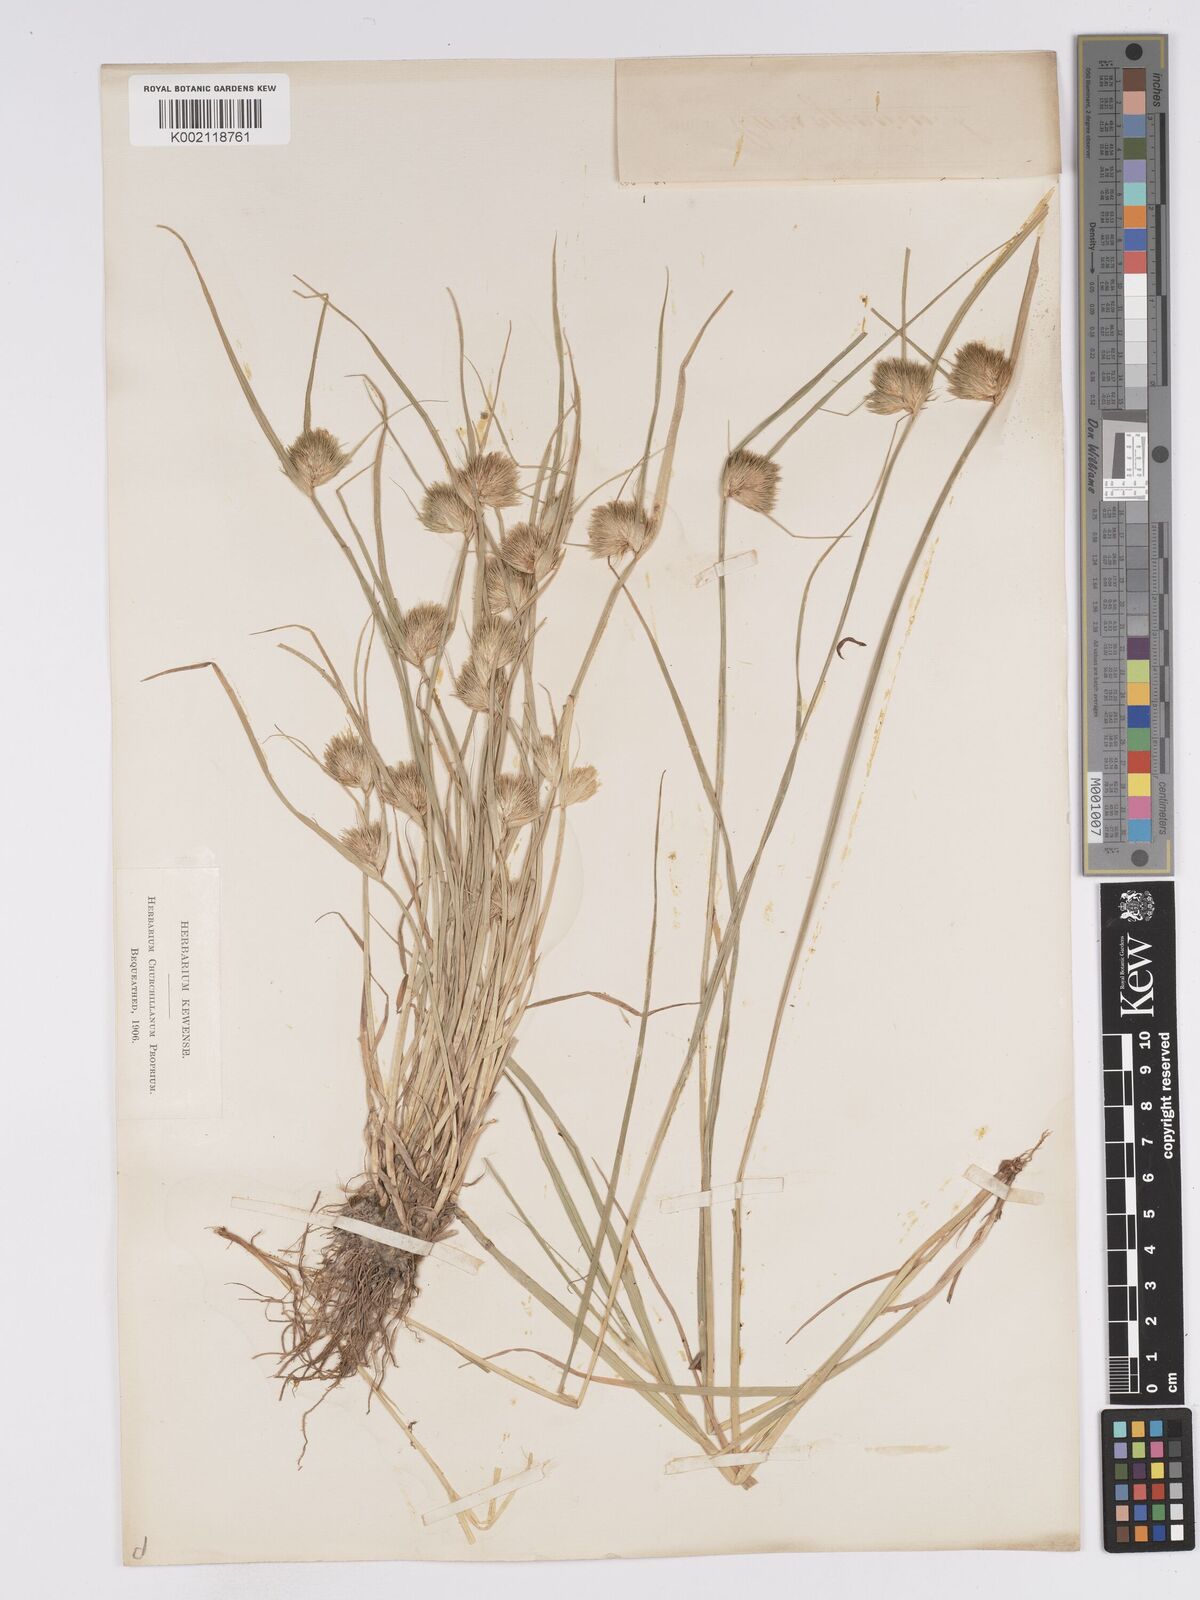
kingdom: Plantae
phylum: Tracheophyta
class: Liliopsida
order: Poales
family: Cyperaceae
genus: Carex
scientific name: Carex bohemica
